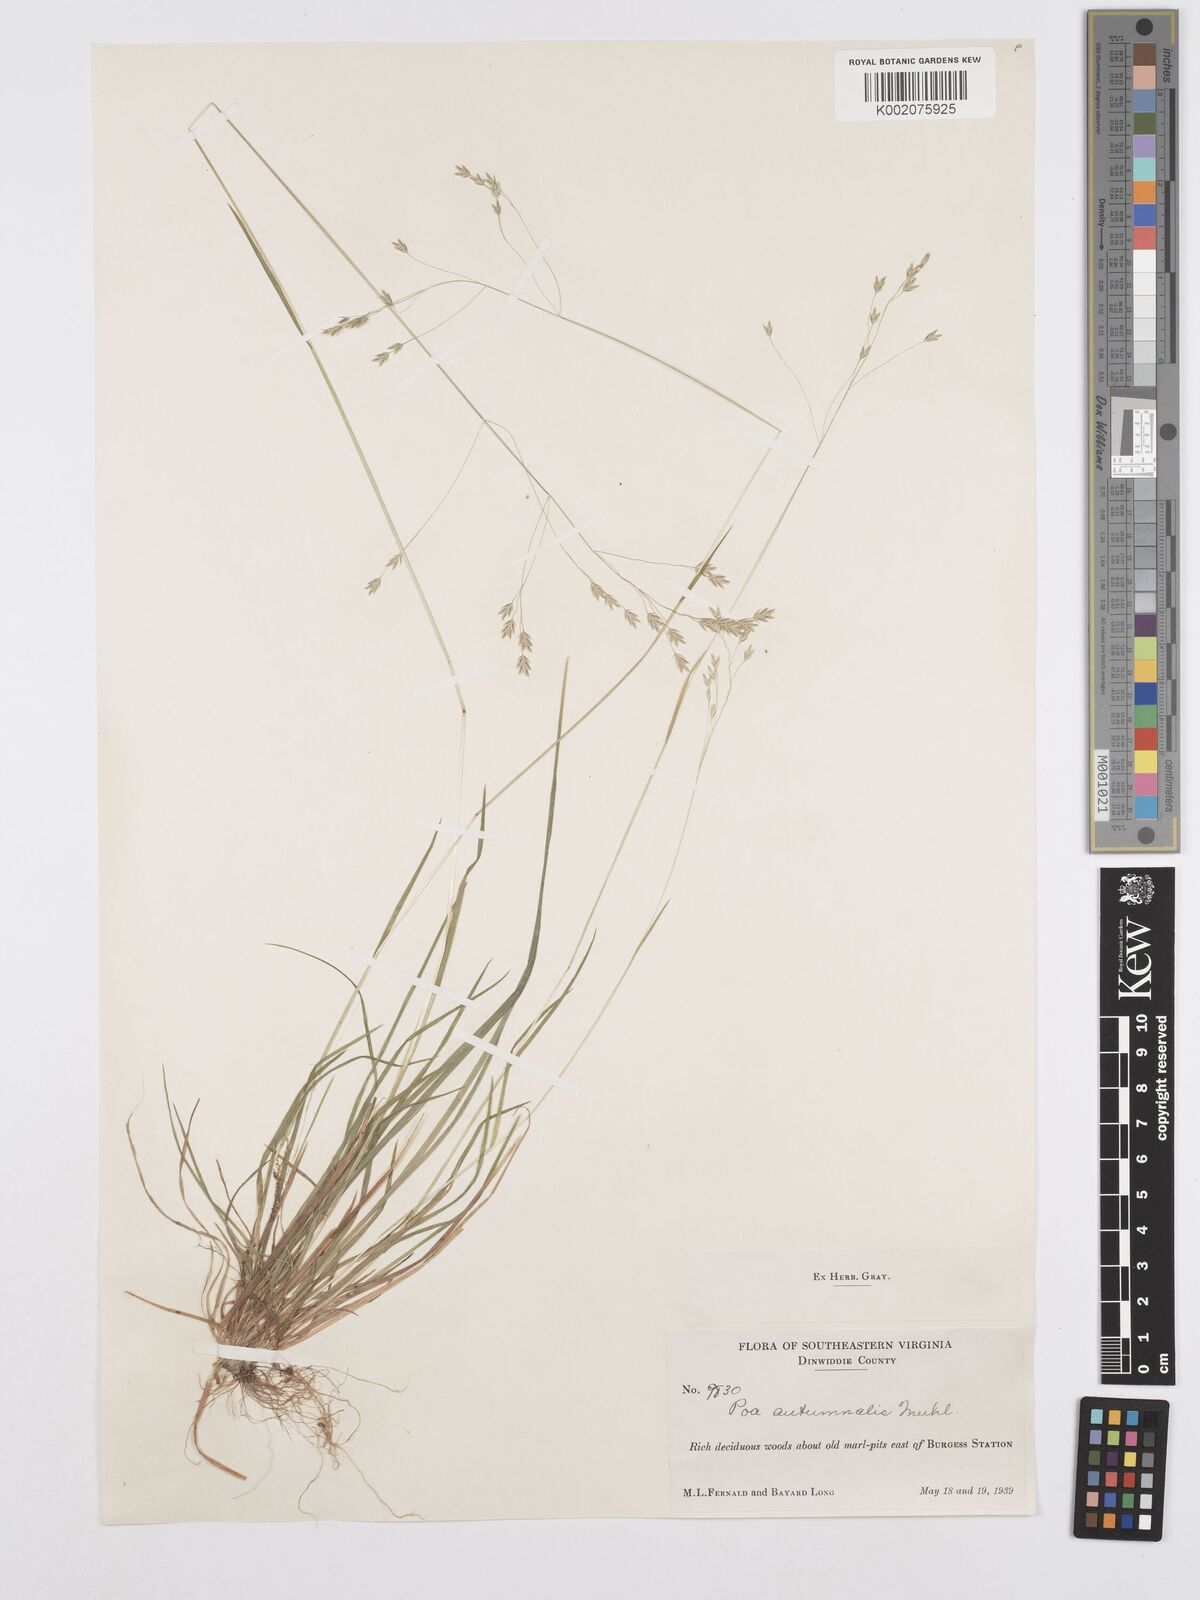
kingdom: Plantae
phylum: Tracheophyta
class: Liliopsida
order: Poales
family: Poaceae
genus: Poa
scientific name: Poa autumnalis
